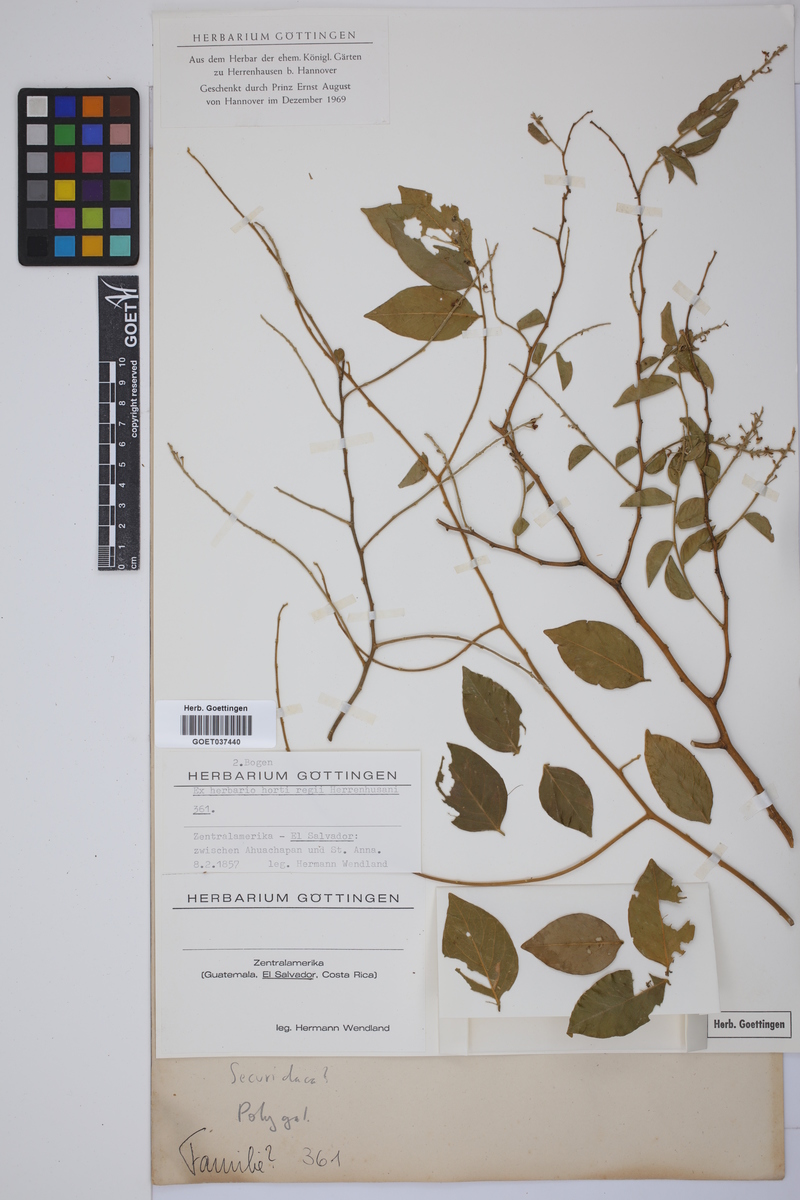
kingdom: Plantae
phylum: Tracheophyta
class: Magnoliopsida
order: Fabales
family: Polygalaceae
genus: Securidaca
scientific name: Securidaca
